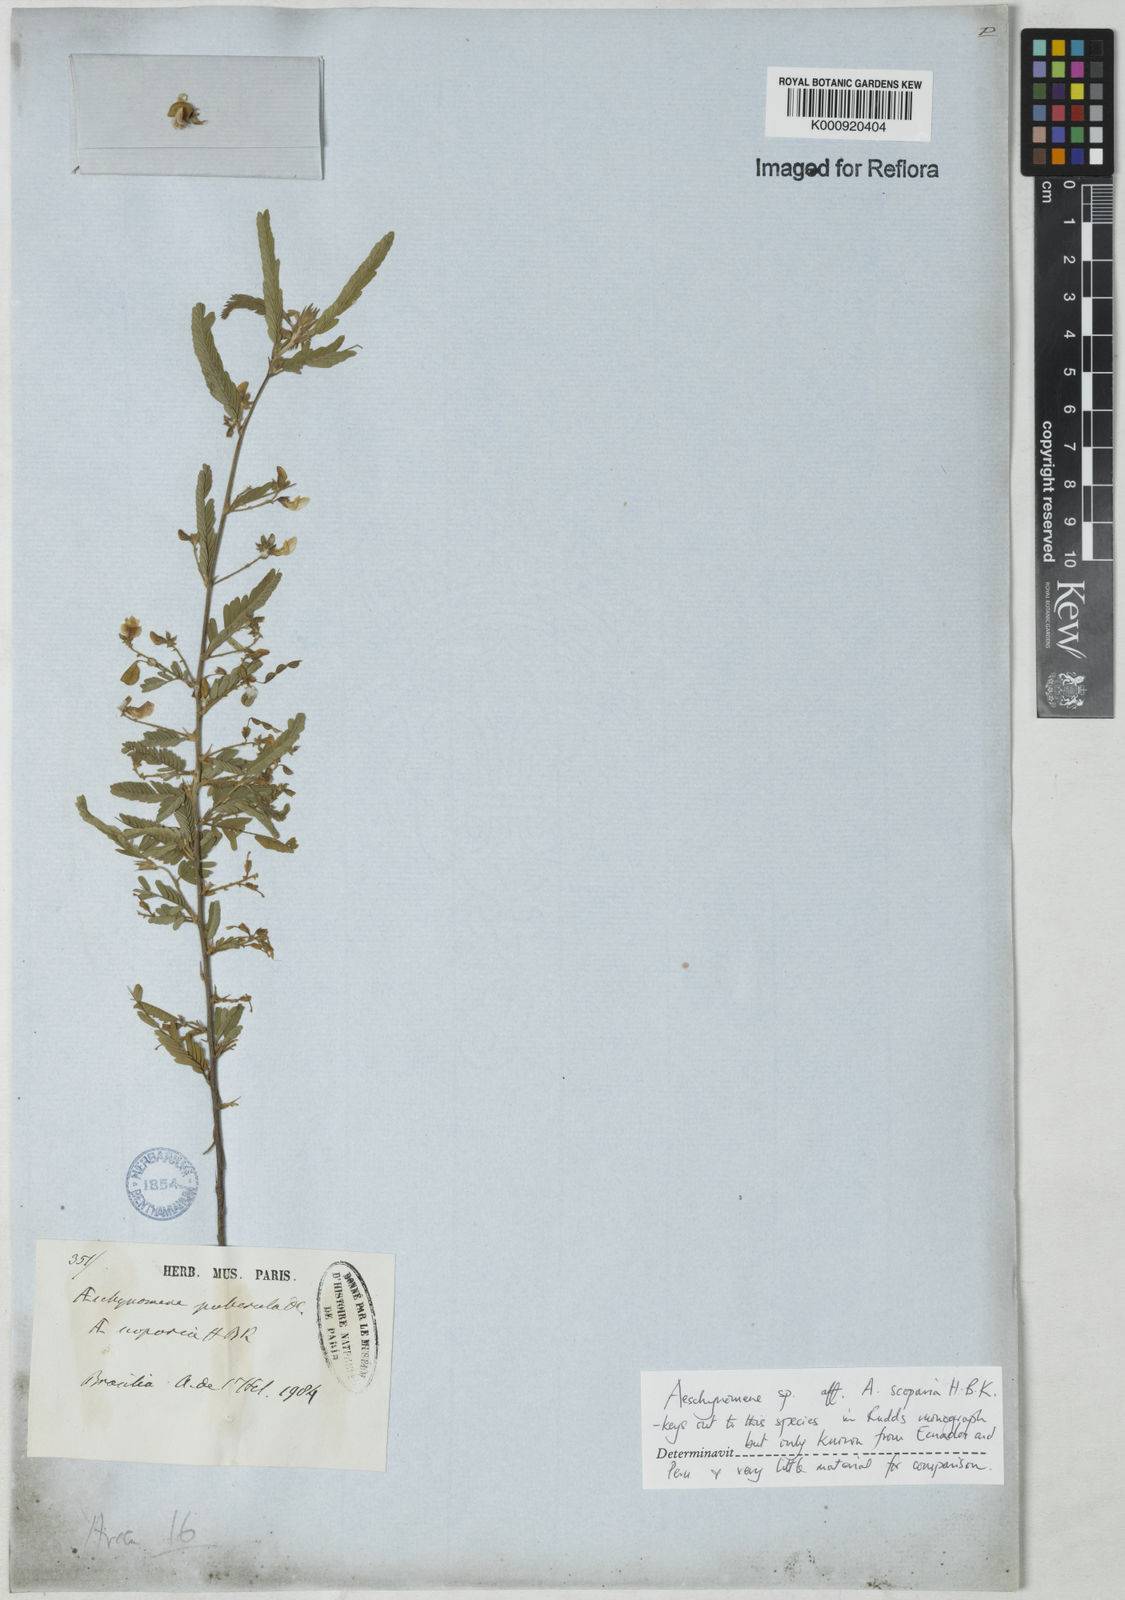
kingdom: Plantae
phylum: Tracheophyta
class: Magnoliopsida
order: Fabales
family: Fabaceae
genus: Ctenodon
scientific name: Ctenodon scoparius
